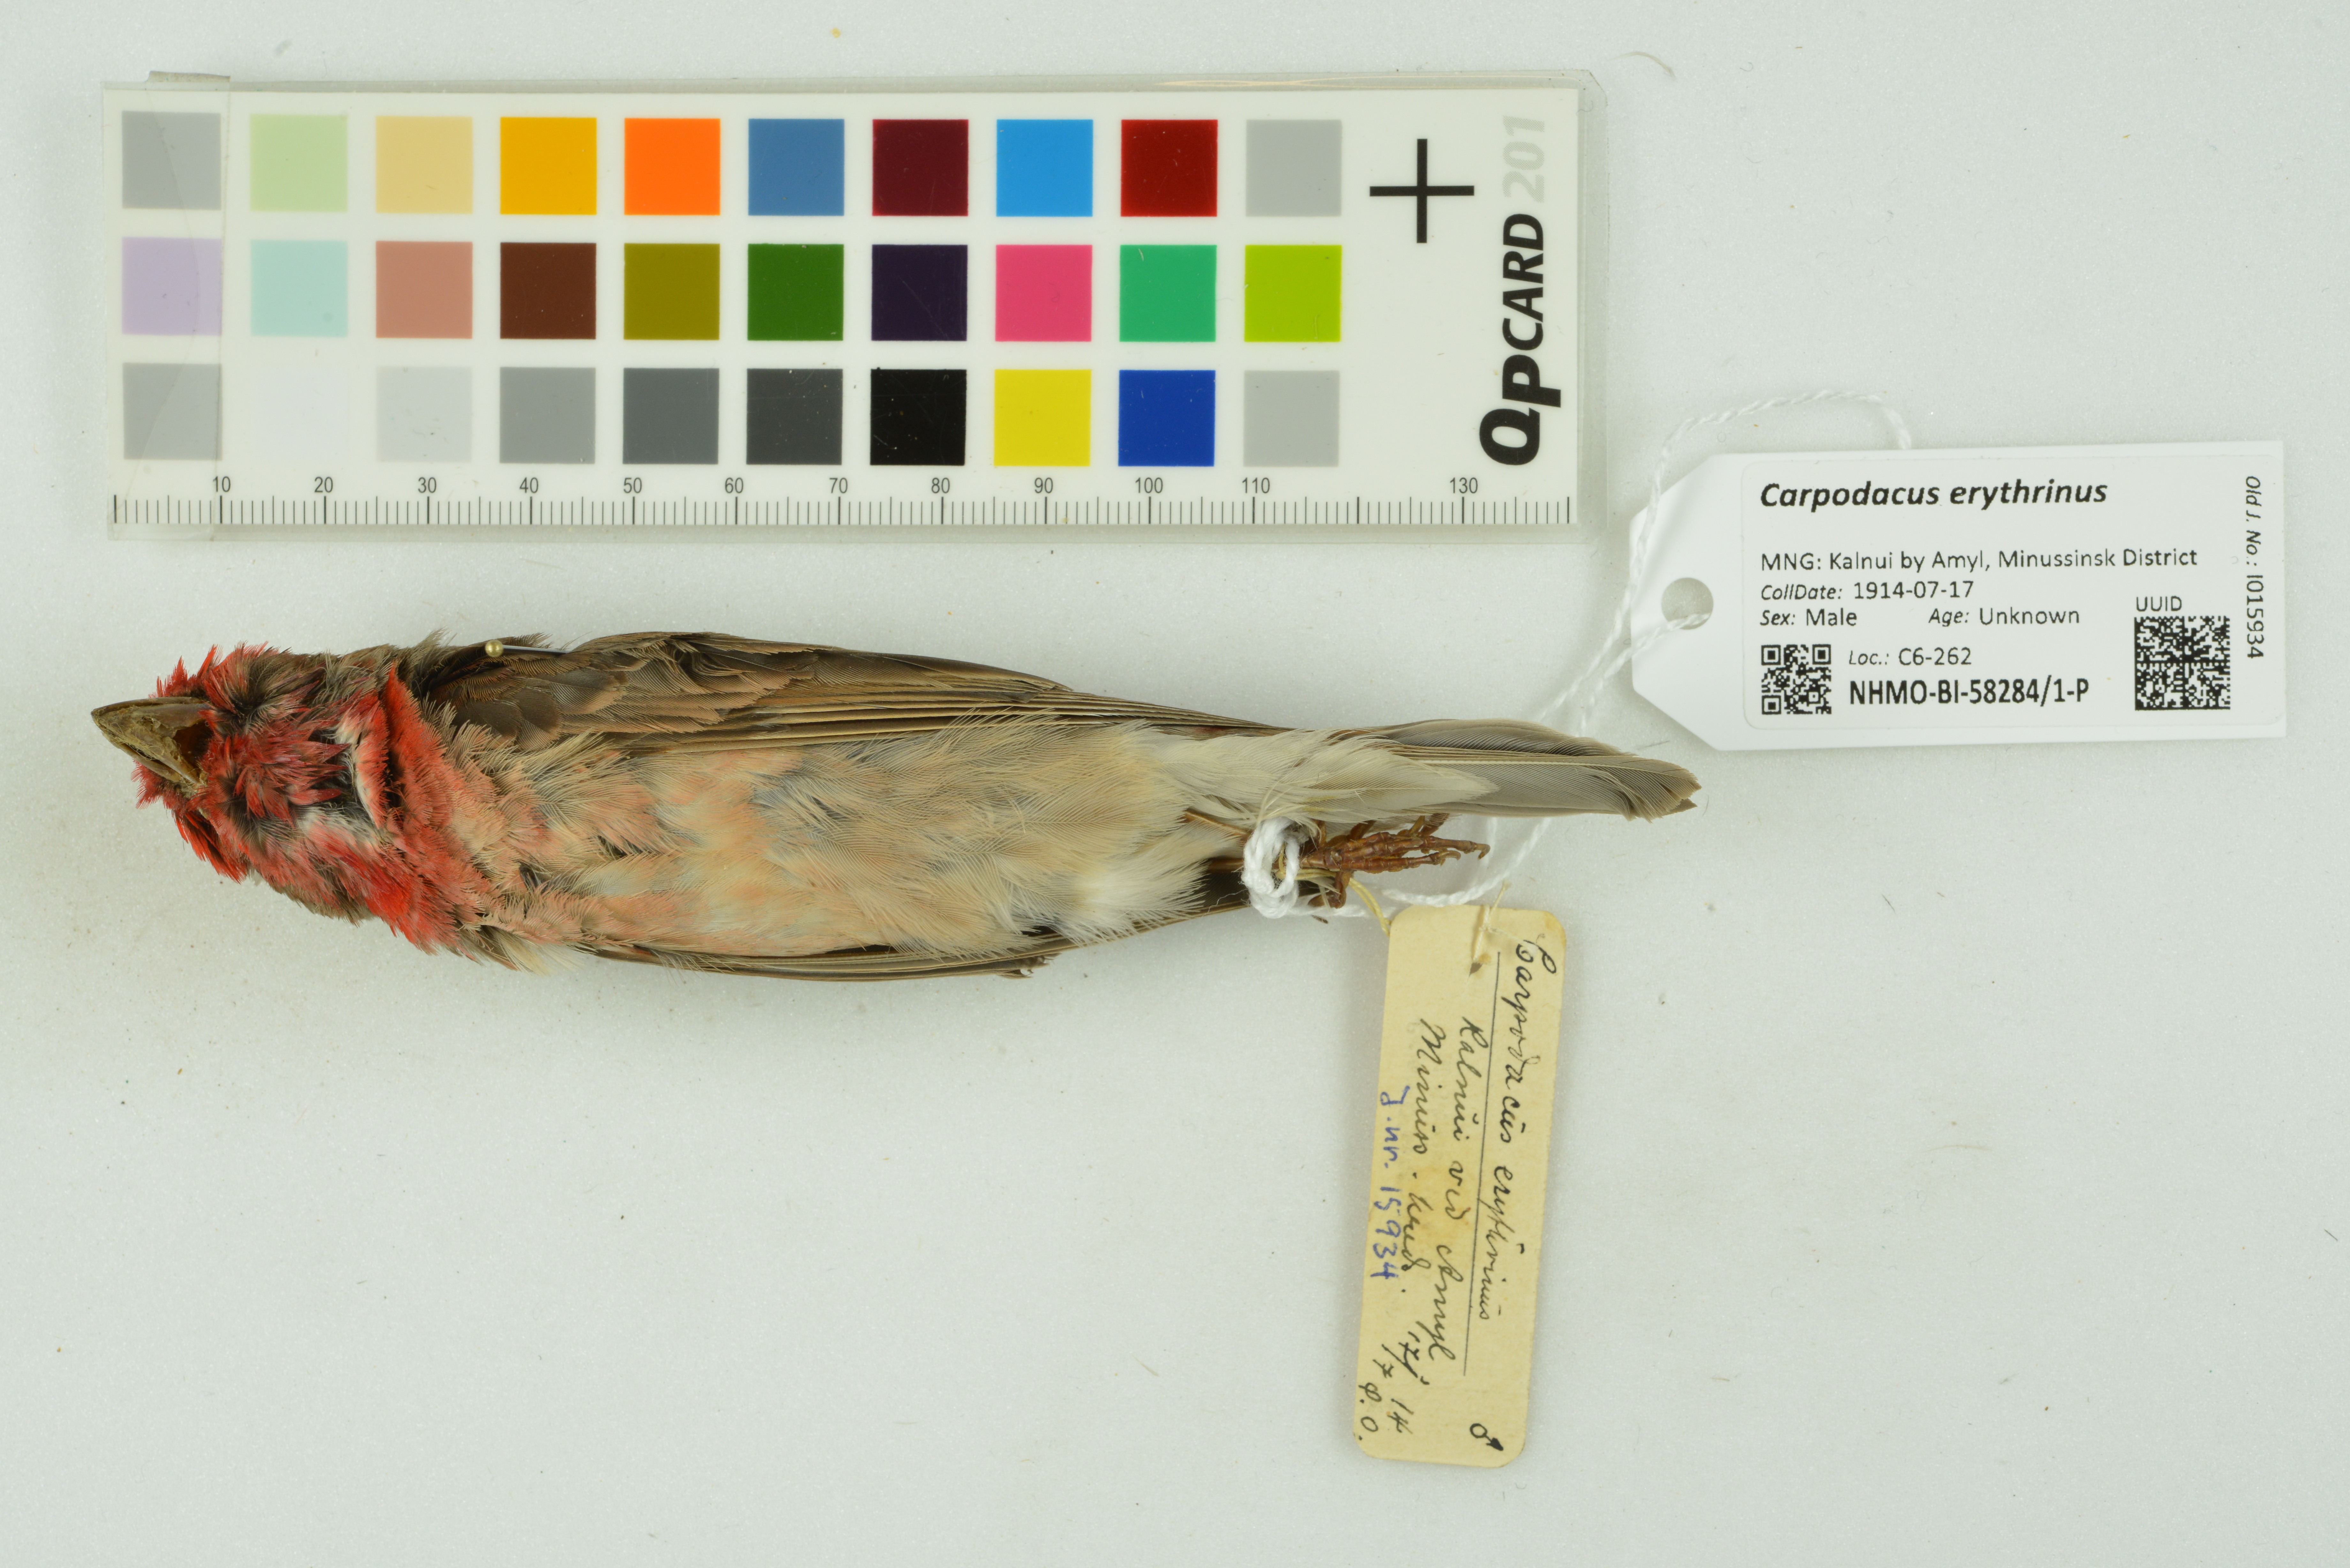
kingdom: Animalia
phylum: Chordata
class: Aves
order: Passeriformes
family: Fringillidae
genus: Carpodacus
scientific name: Carpodacus erythrinus
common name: Common rosefinch
